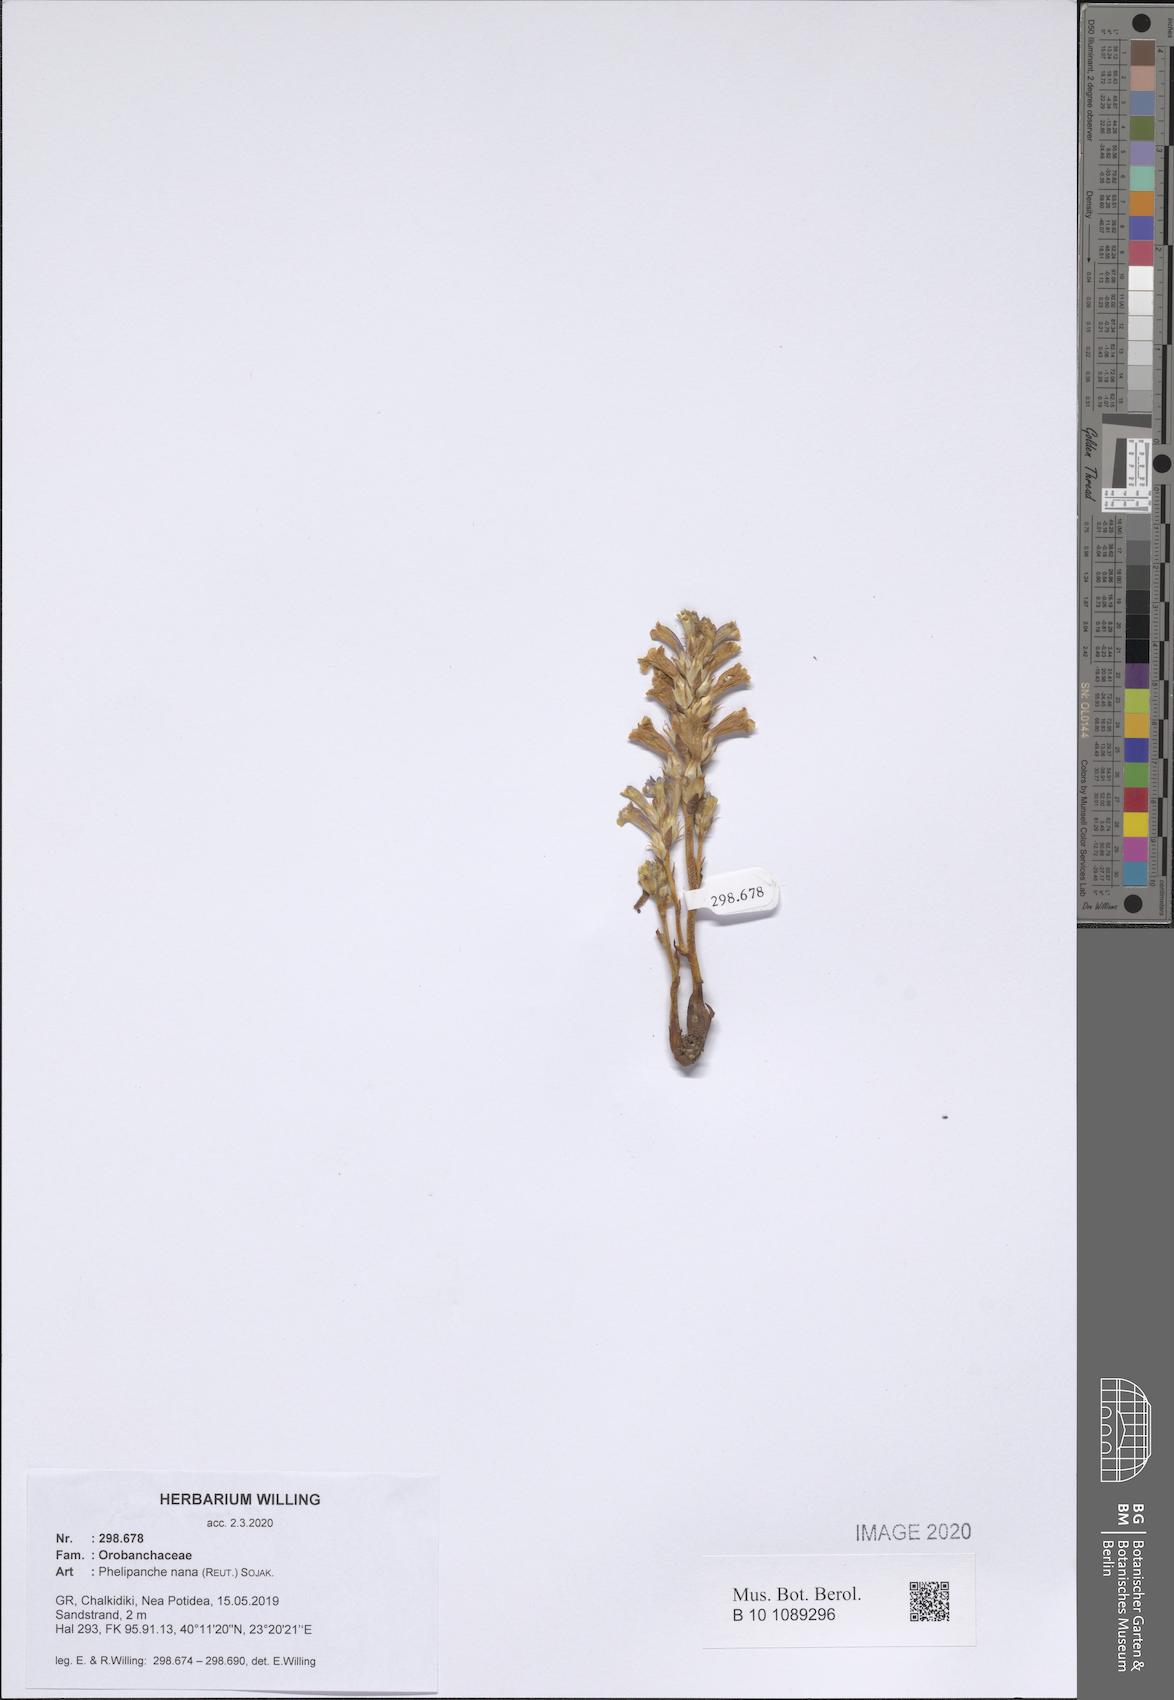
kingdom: Plantae
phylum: Tracheophyta
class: Magnoliopsida
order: Lamiales
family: Orobanchaceae
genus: Phelipanche
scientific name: Phelipanche mutelii
